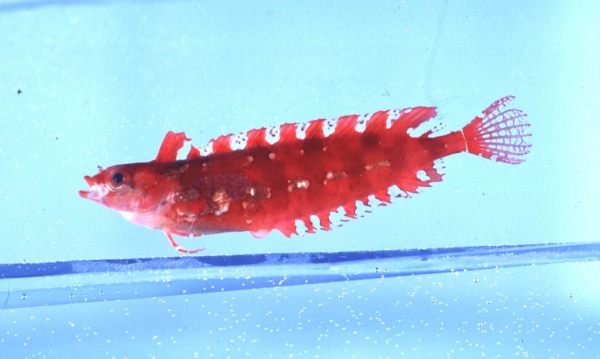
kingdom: Animalia
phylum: Chordata
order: Perciformes
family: Clinidae
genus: Pavoclinus
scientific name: Pavoclinus graminis
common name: Grass klipfish
